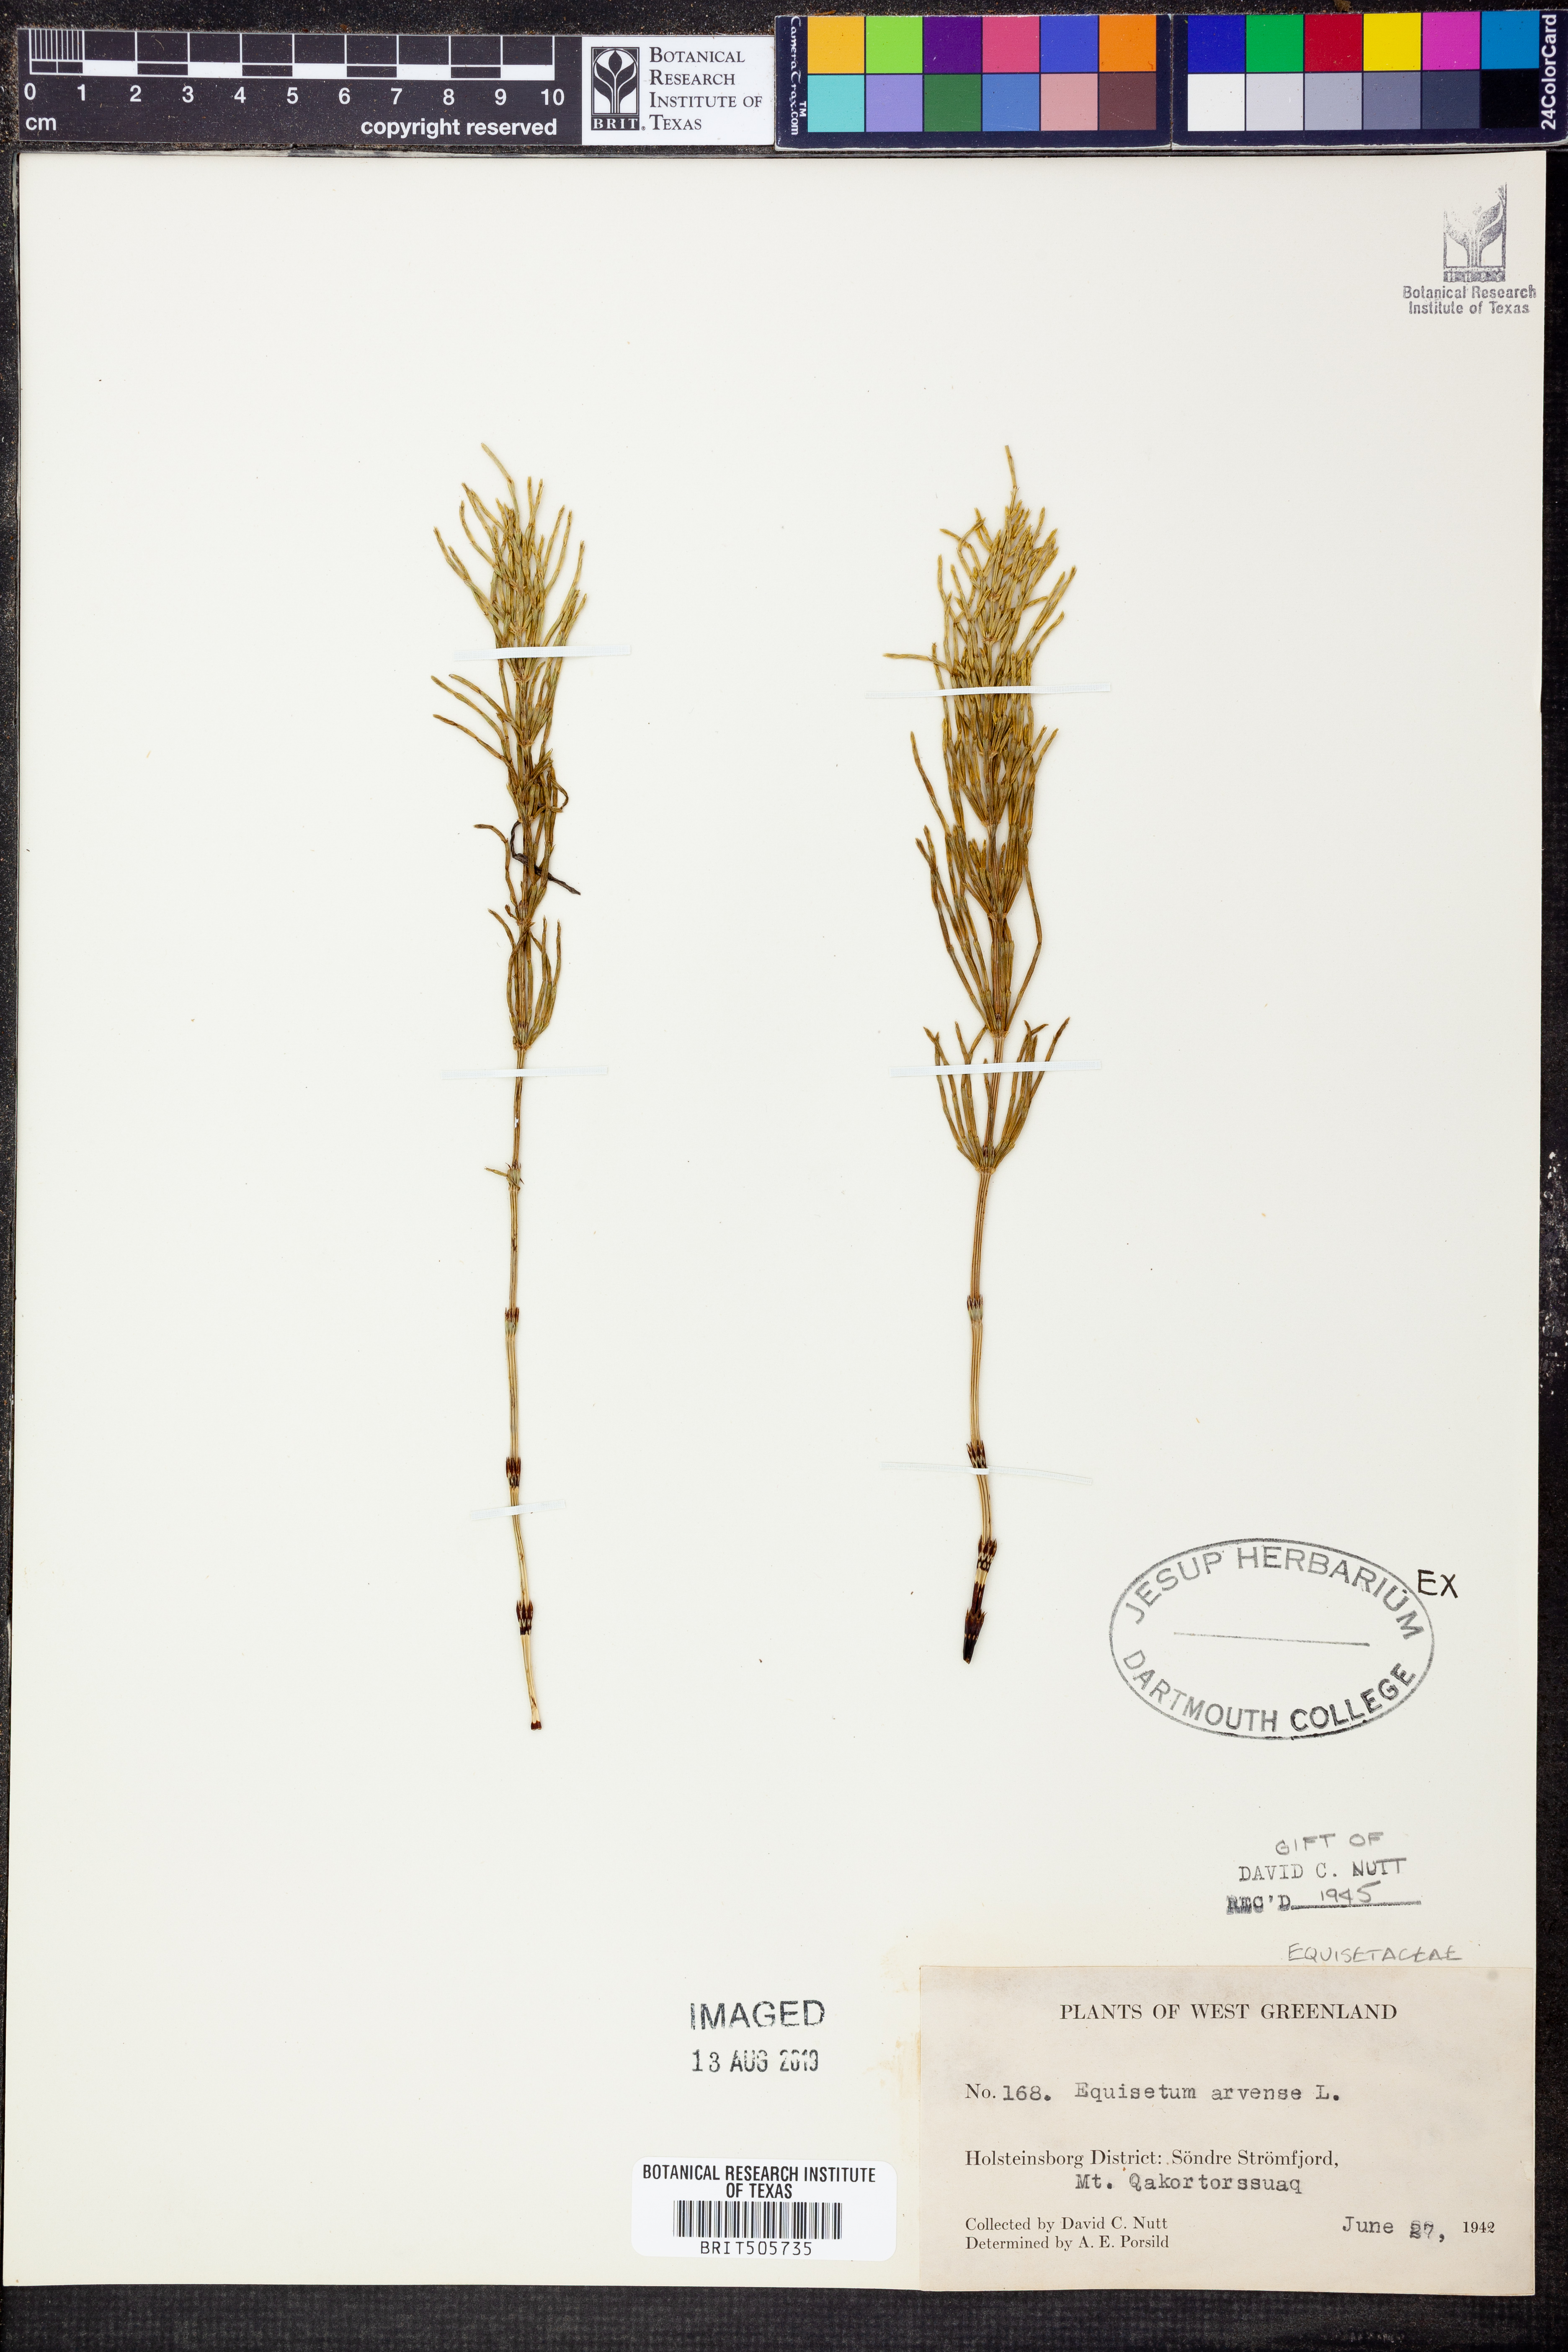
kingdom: Plantae
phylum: Tracheophyta
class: Polypodiopsida
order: Equisetales
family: Equisetaceae
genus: Equisetum
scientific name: Equisetum arvense
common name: Field horsetail
